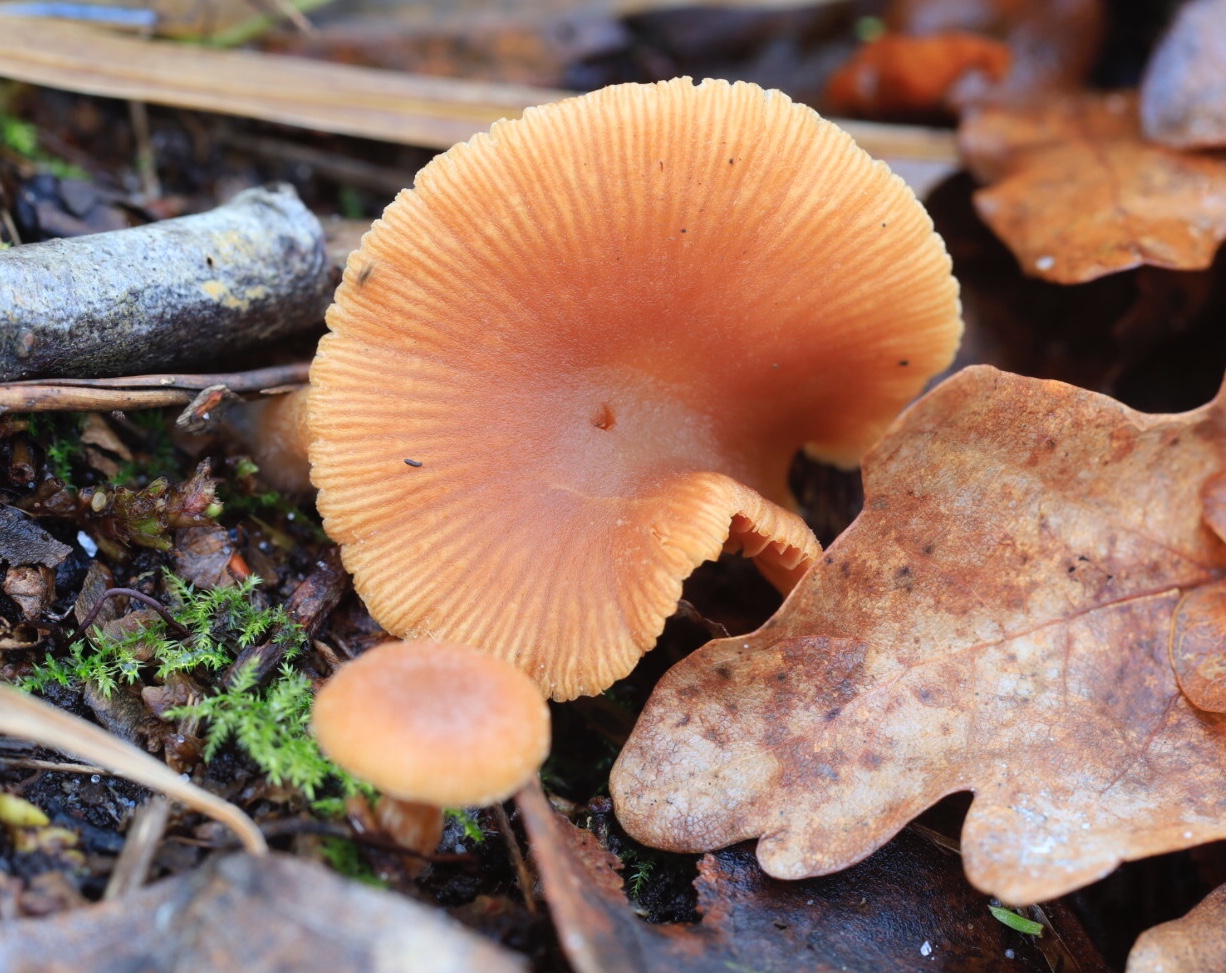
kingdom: Fungi
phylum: Basidiomycota
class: Agaricomycetes
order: Agaricales
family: Tubariaceae
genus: Tubaria
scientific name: Tubaria furfuracea
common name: kliddet fnughat
